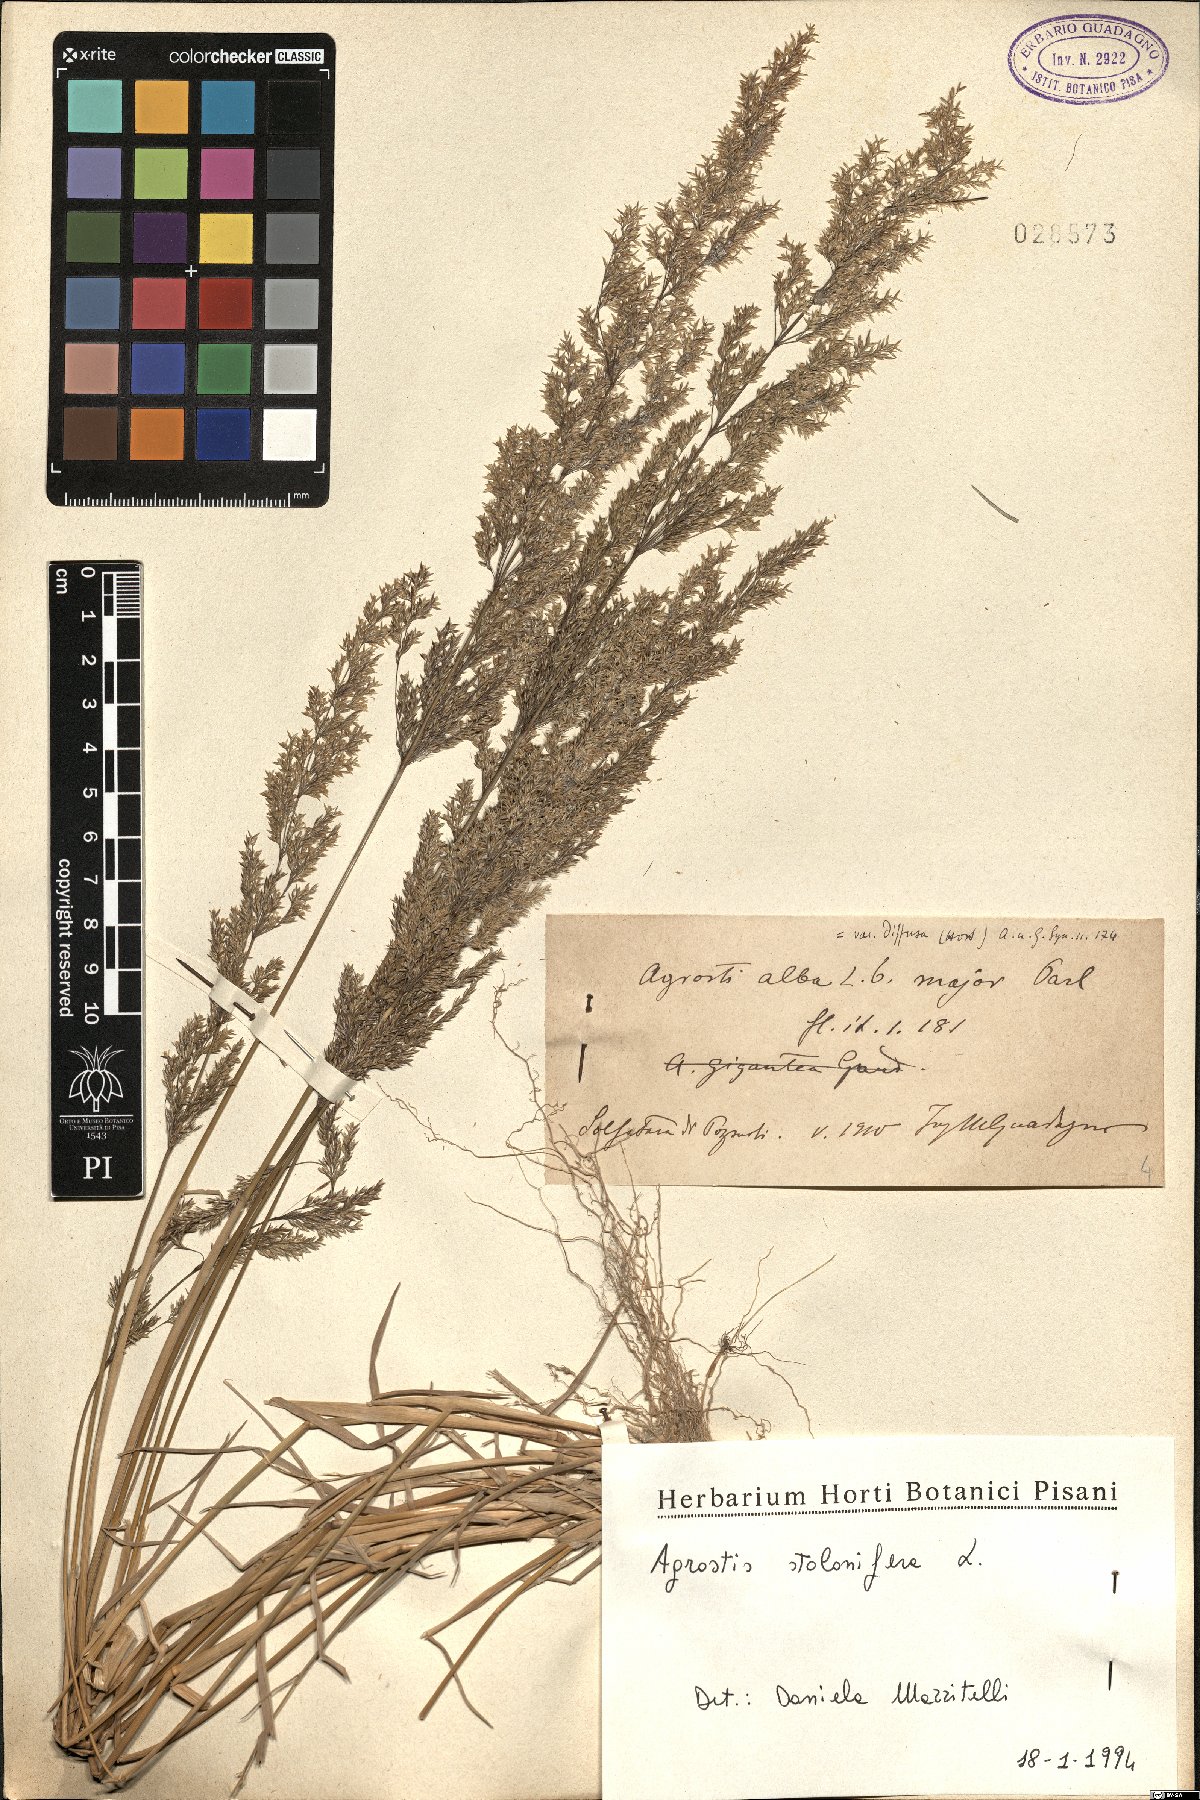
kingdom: Plantae
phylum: Tracheophyta
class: Liliopsida
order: Poales
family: Poaceae
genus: Agrostis
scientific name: Agrostis stolonifera
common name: Creeping bentgrass
